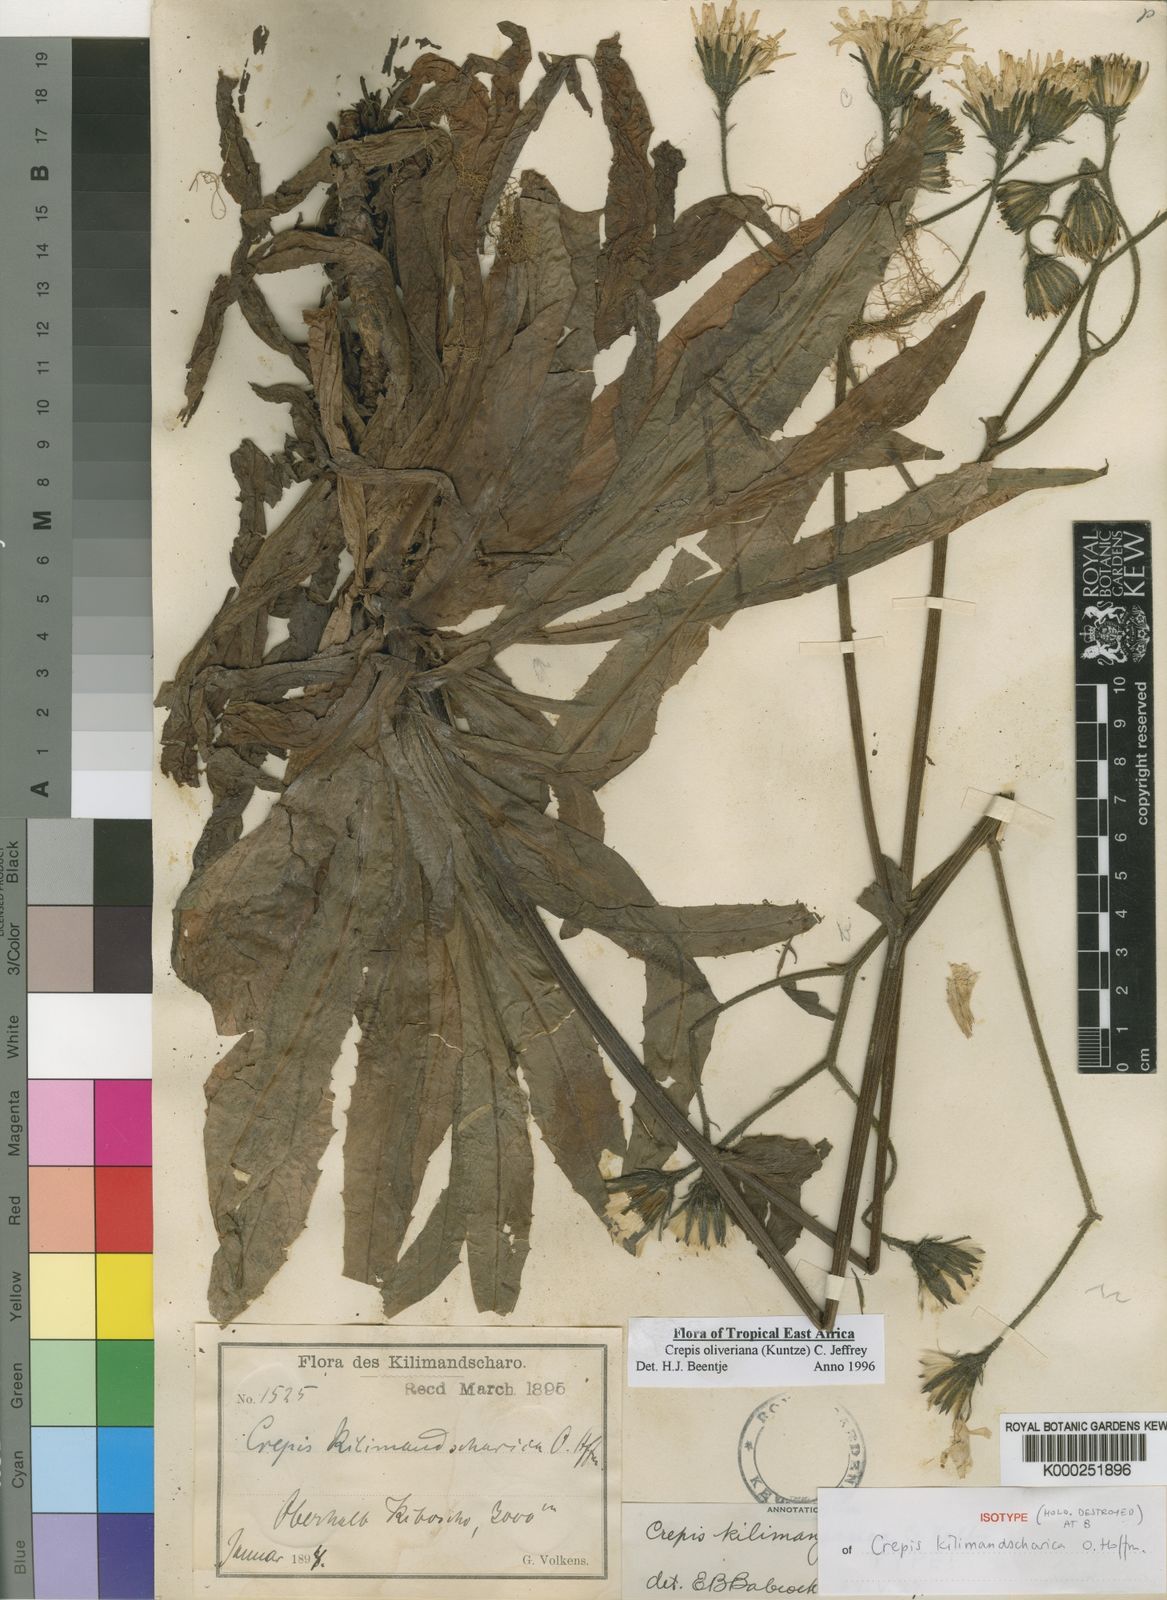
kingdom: Plantae
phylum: Tracheophyta
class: Magnoliopsida
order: Asterales
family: Asteraceae
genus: Crepis
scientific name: Crepis hypochoeridea
